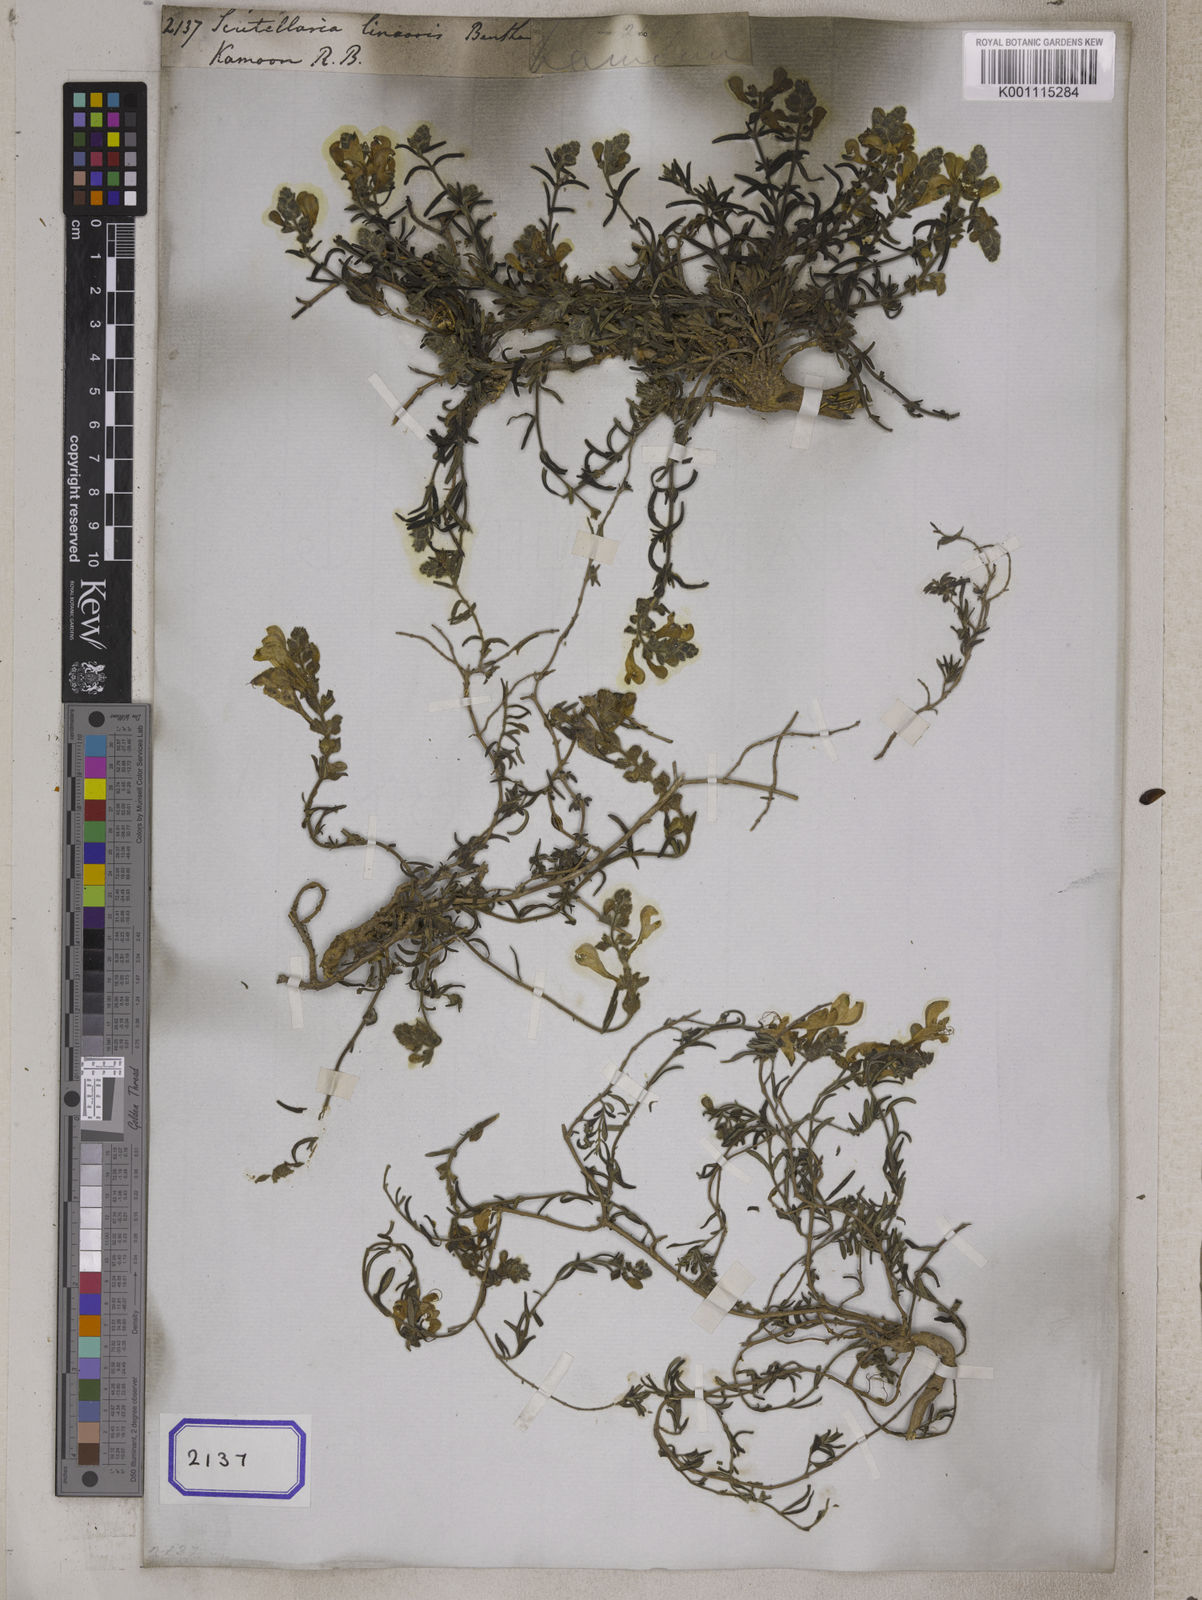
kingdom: Plantae
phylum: Tracheophyta
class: Magnoliopsida
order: Lamiales
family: Lamiaceae
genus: Scutellaria
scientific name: Scutellaria linearis
